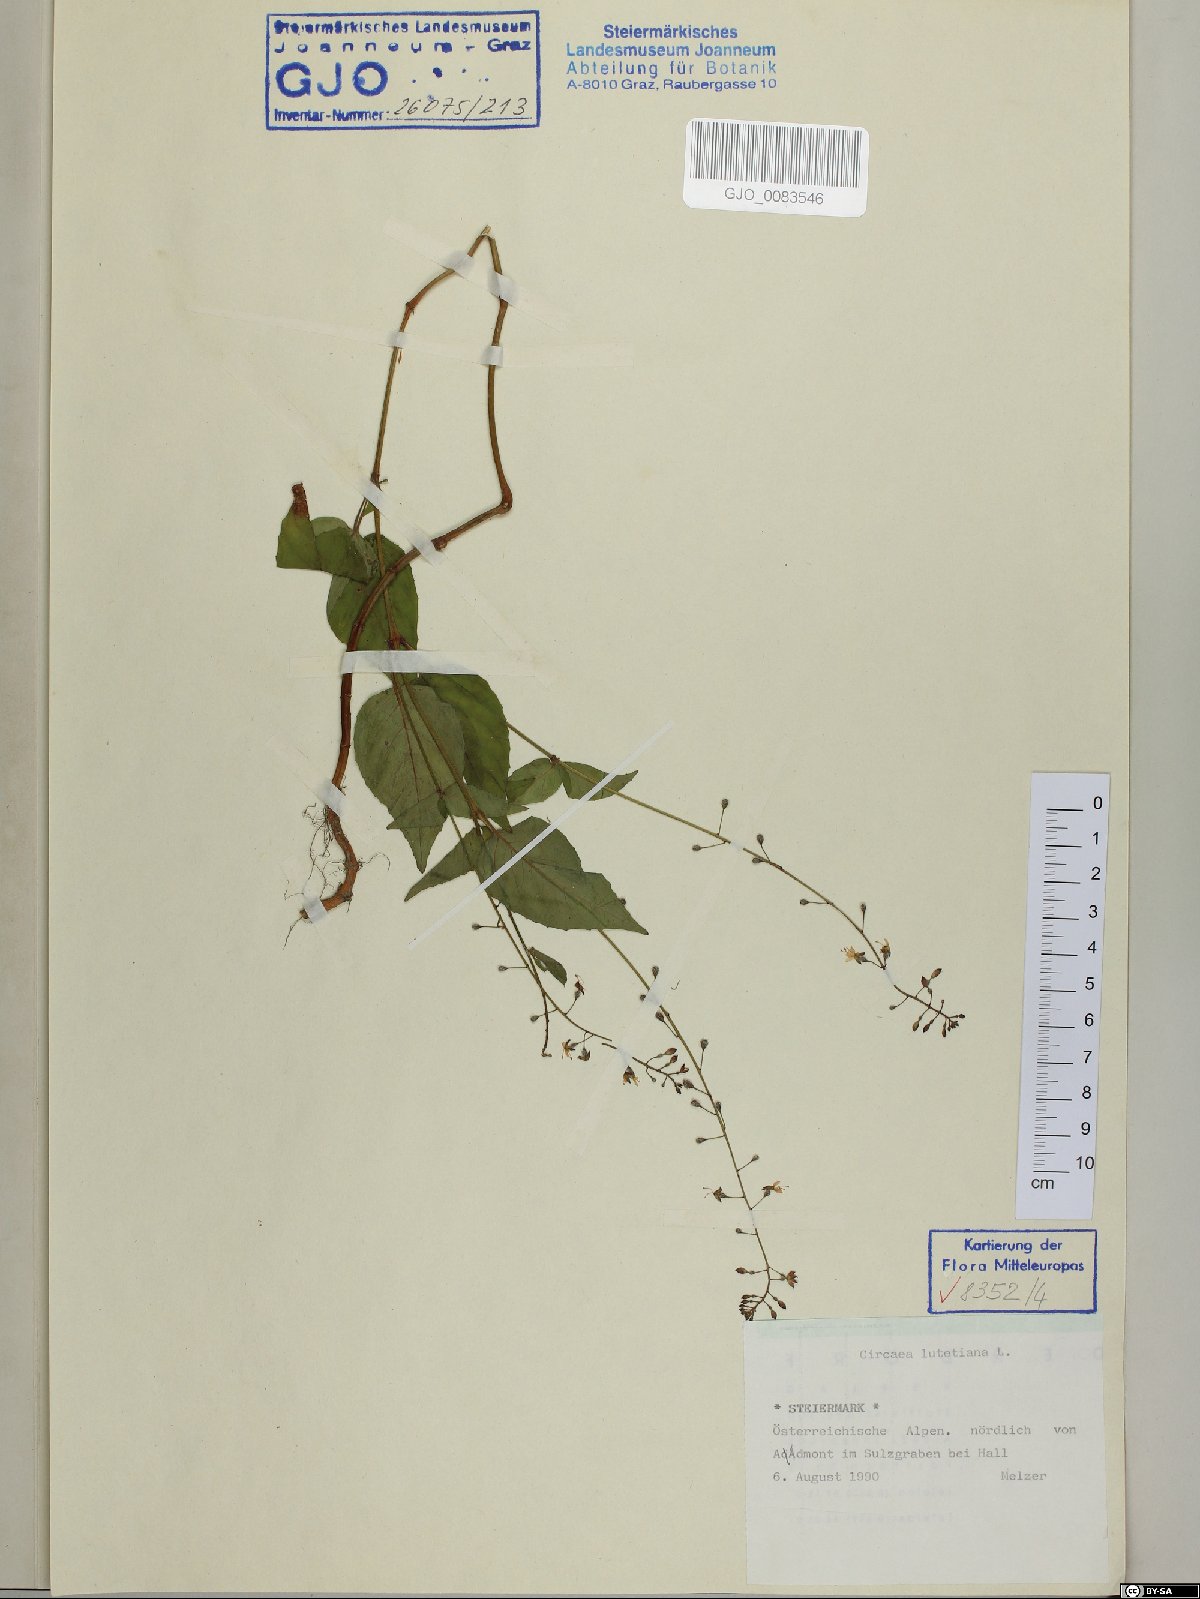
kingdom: Plantae
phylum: Tracheophyta
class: Magnoliopsida
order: Myrtales
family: Onagraceae
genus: Circaea
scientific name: Circaea lutetiana
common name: Enchanter's-nightshade
